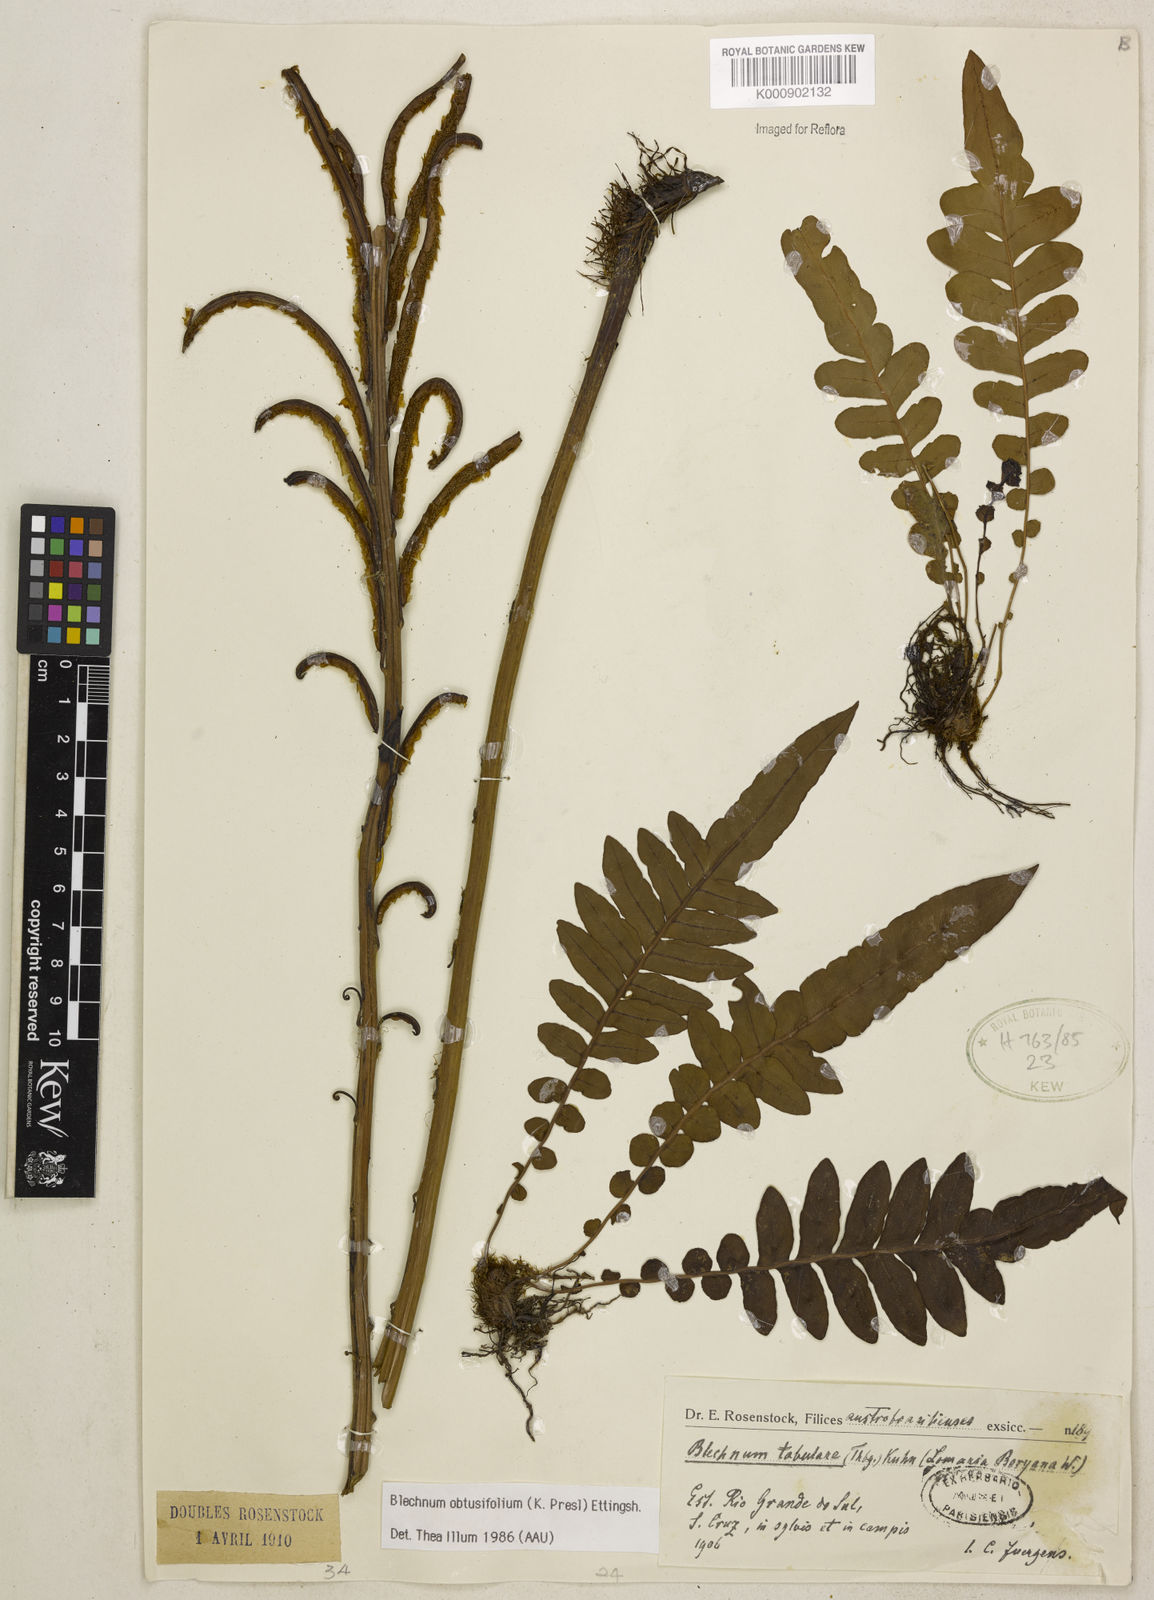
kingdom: Plantae
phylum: Tracheophyta
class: Polypodiopsida
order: Polypodiales
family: Blechnaceae
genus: Lomariocycas
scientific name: Lomariocycas obtusifolia
